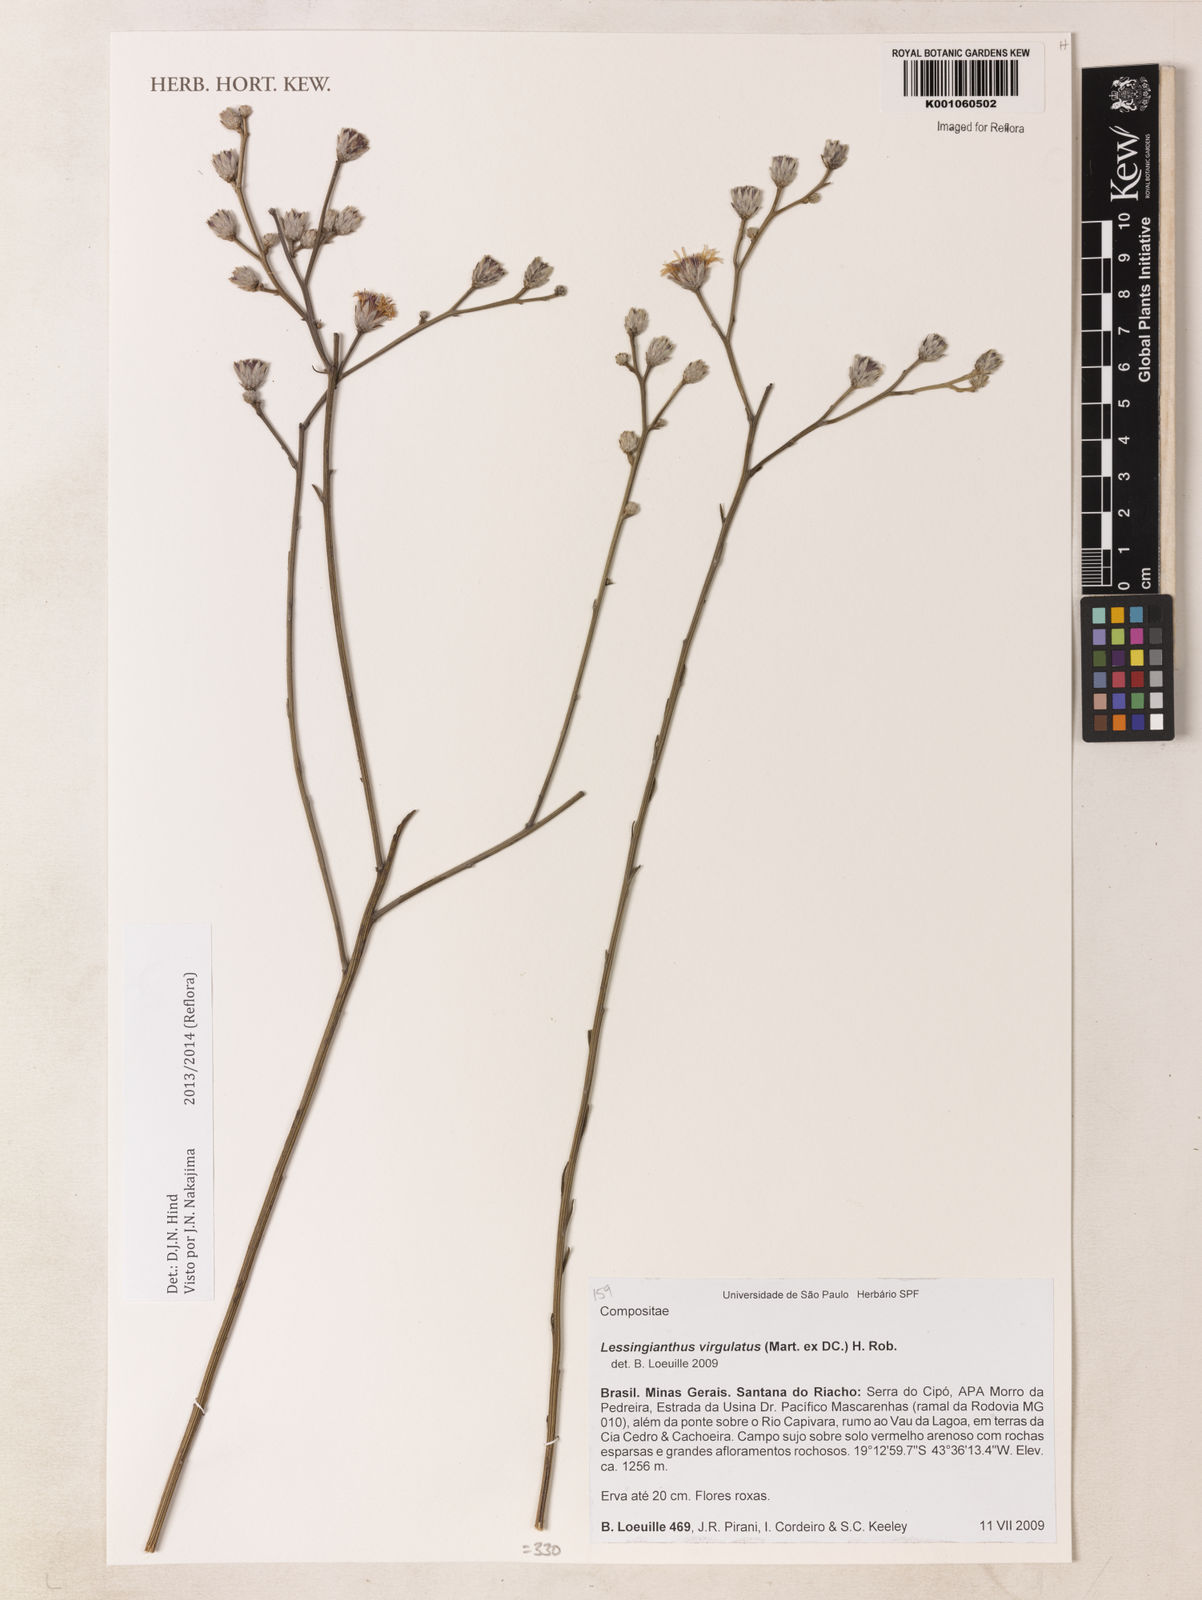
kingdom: Plantae
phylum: Tracheophyta
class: Magnoliopsida
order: Asterales
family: Asteraceae
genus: Lessingianthus
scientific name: Lessingianthus virgulatus
